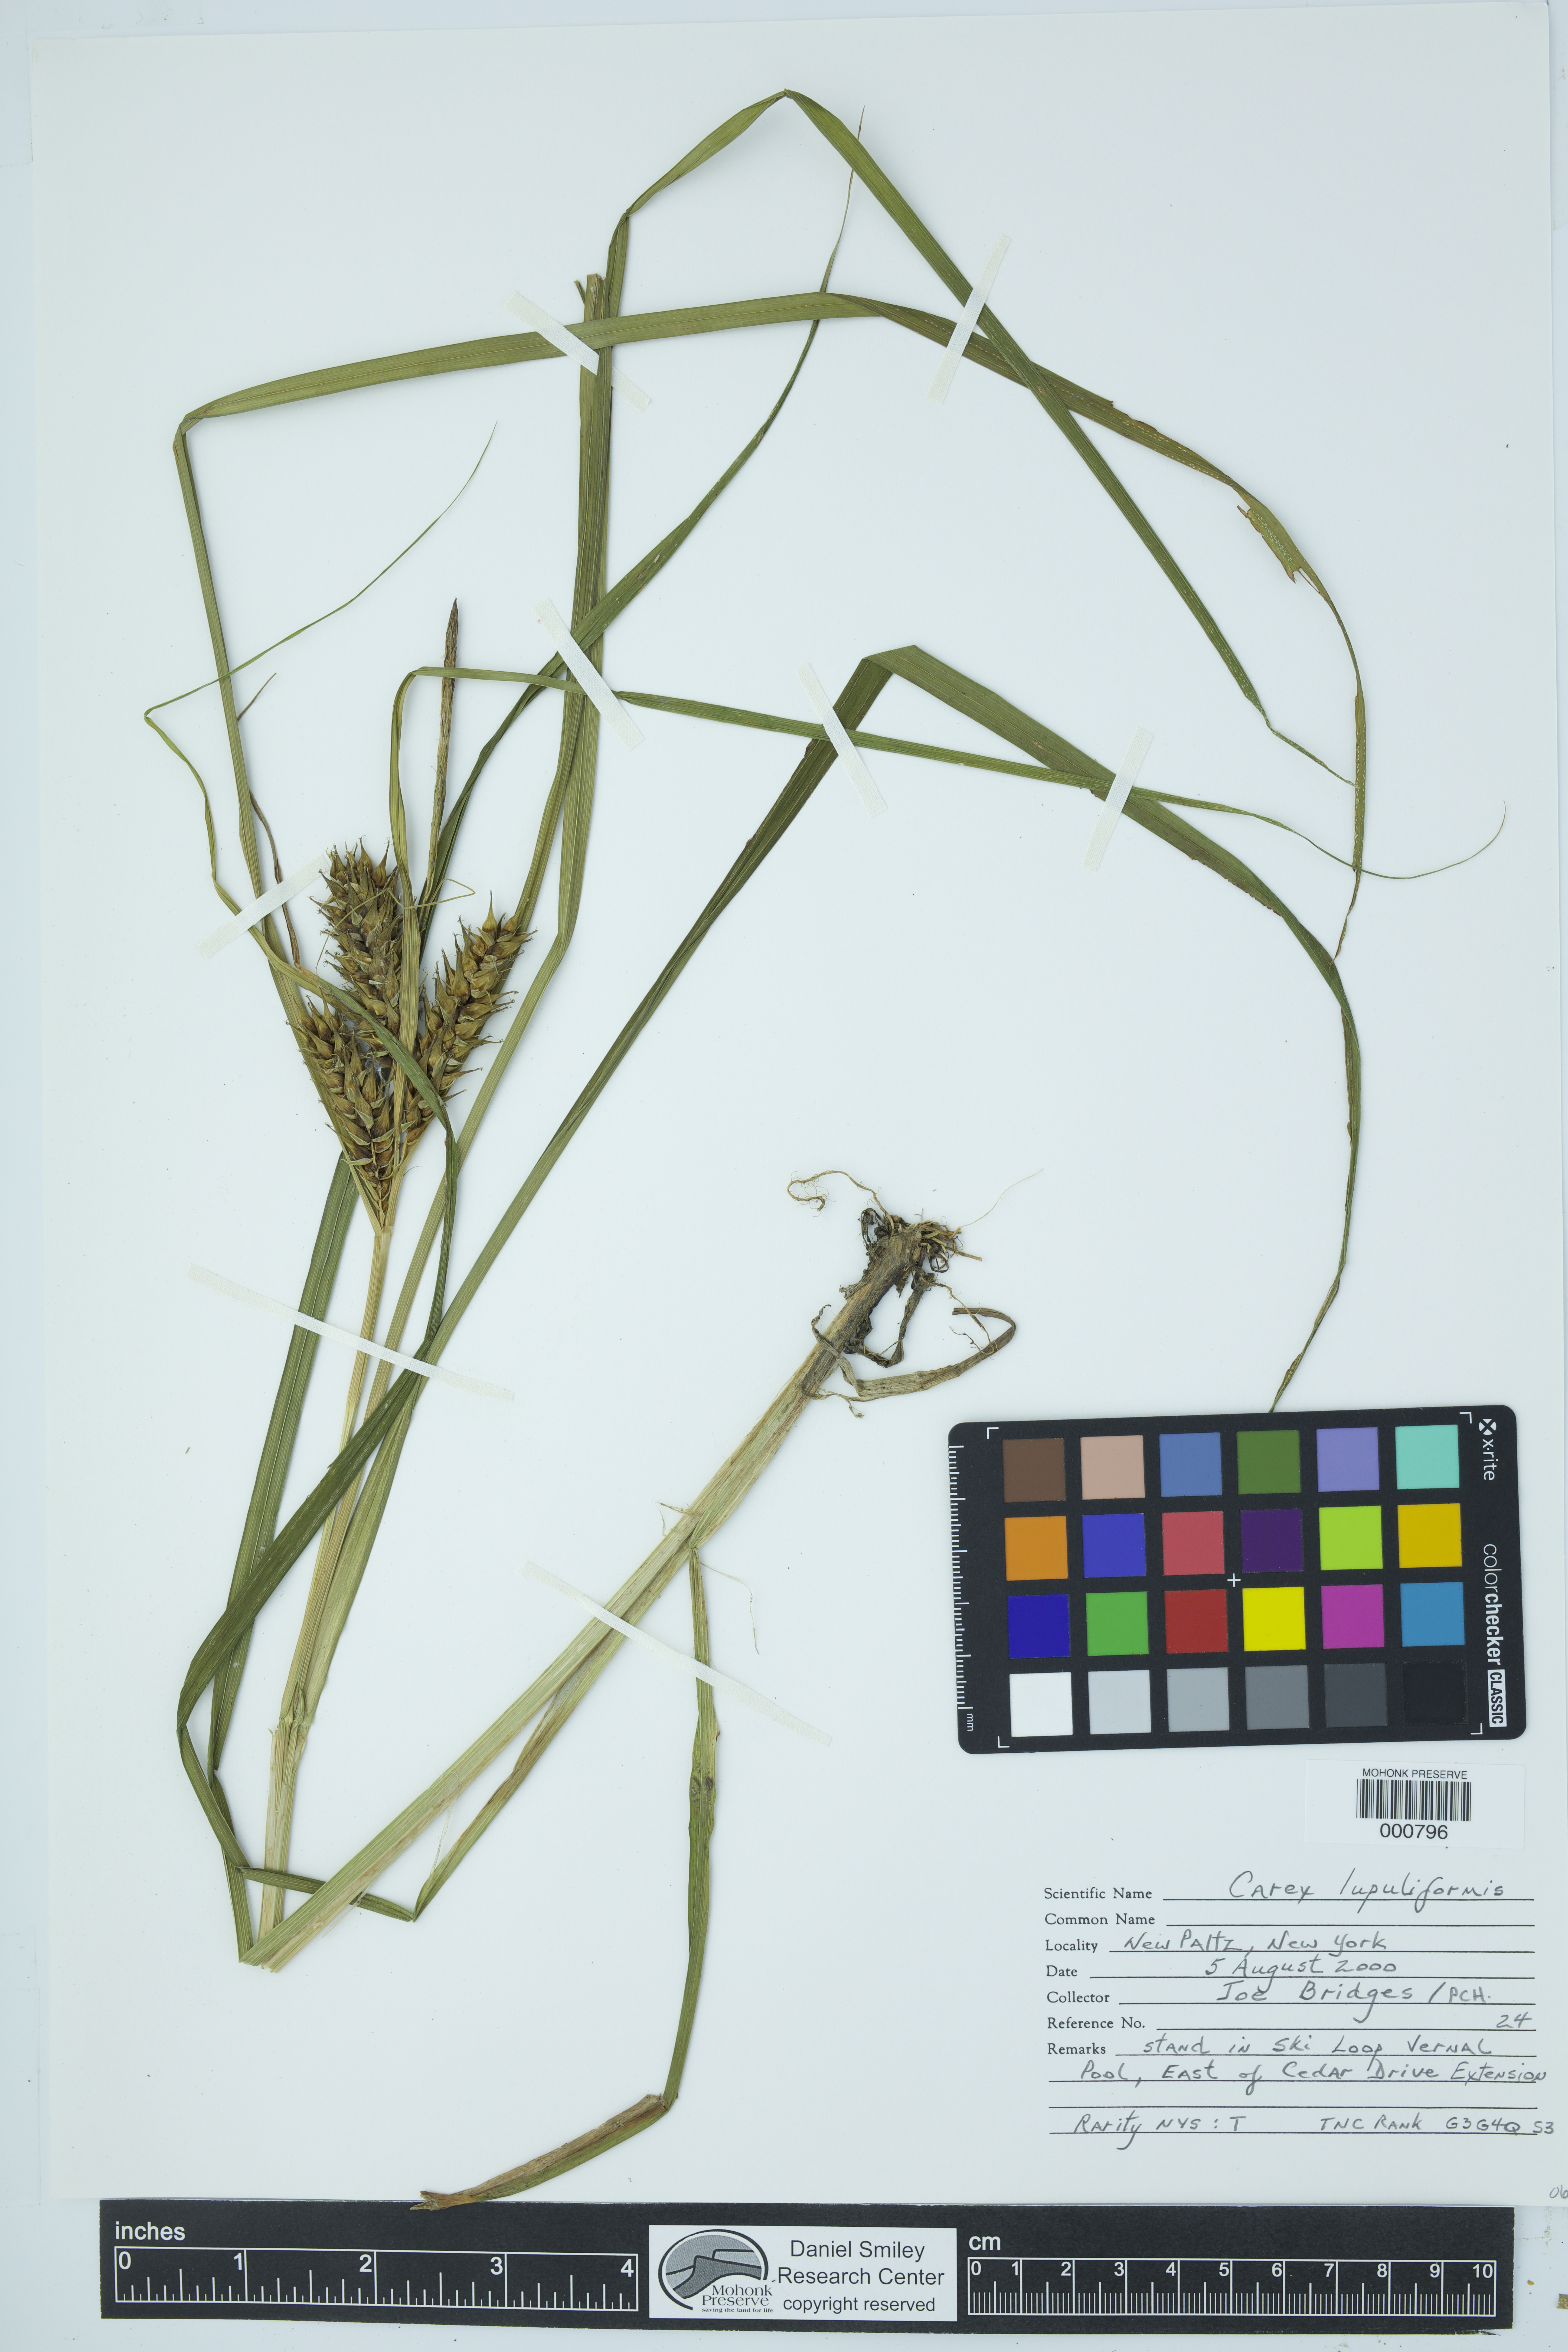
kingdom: Plantae
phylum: Tracheophyta
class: Liliopsida
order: Poales
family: Cyperaceae
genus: Carex
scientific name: Carex lupuliformis
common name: False hop sedge
